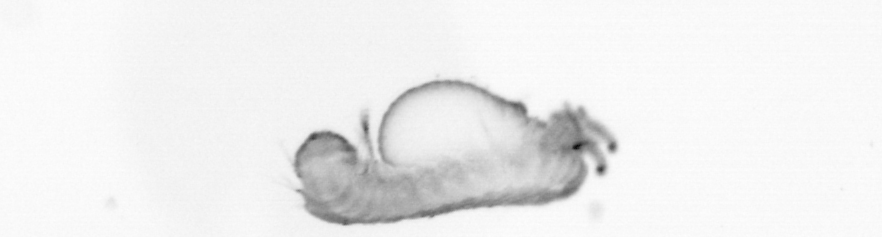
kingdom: Animalia
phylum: Annelida
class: Polychaeta
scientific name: Polychaeta
